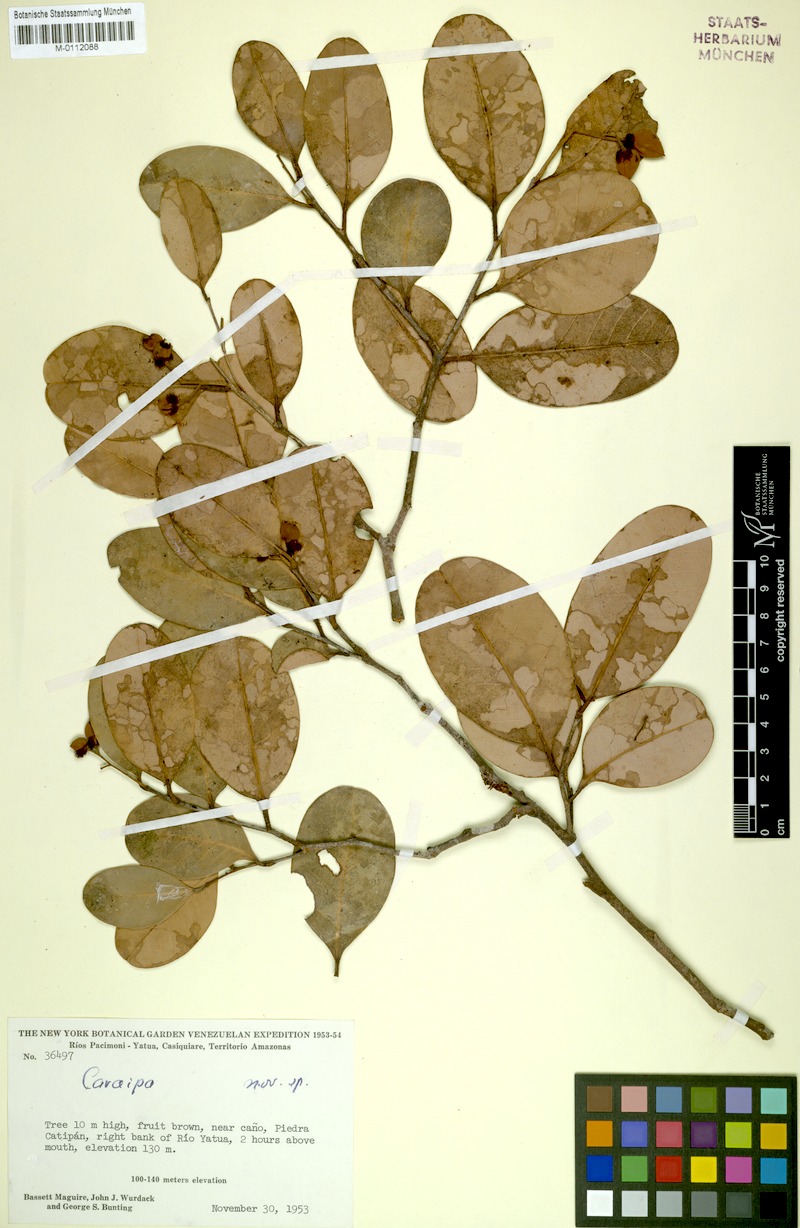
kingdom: Plantae
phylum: Tracheophyta
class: Magnoliopsida
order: Malpighiales
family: Calophyllaceae
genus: Caraipa
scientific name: Caraipa
